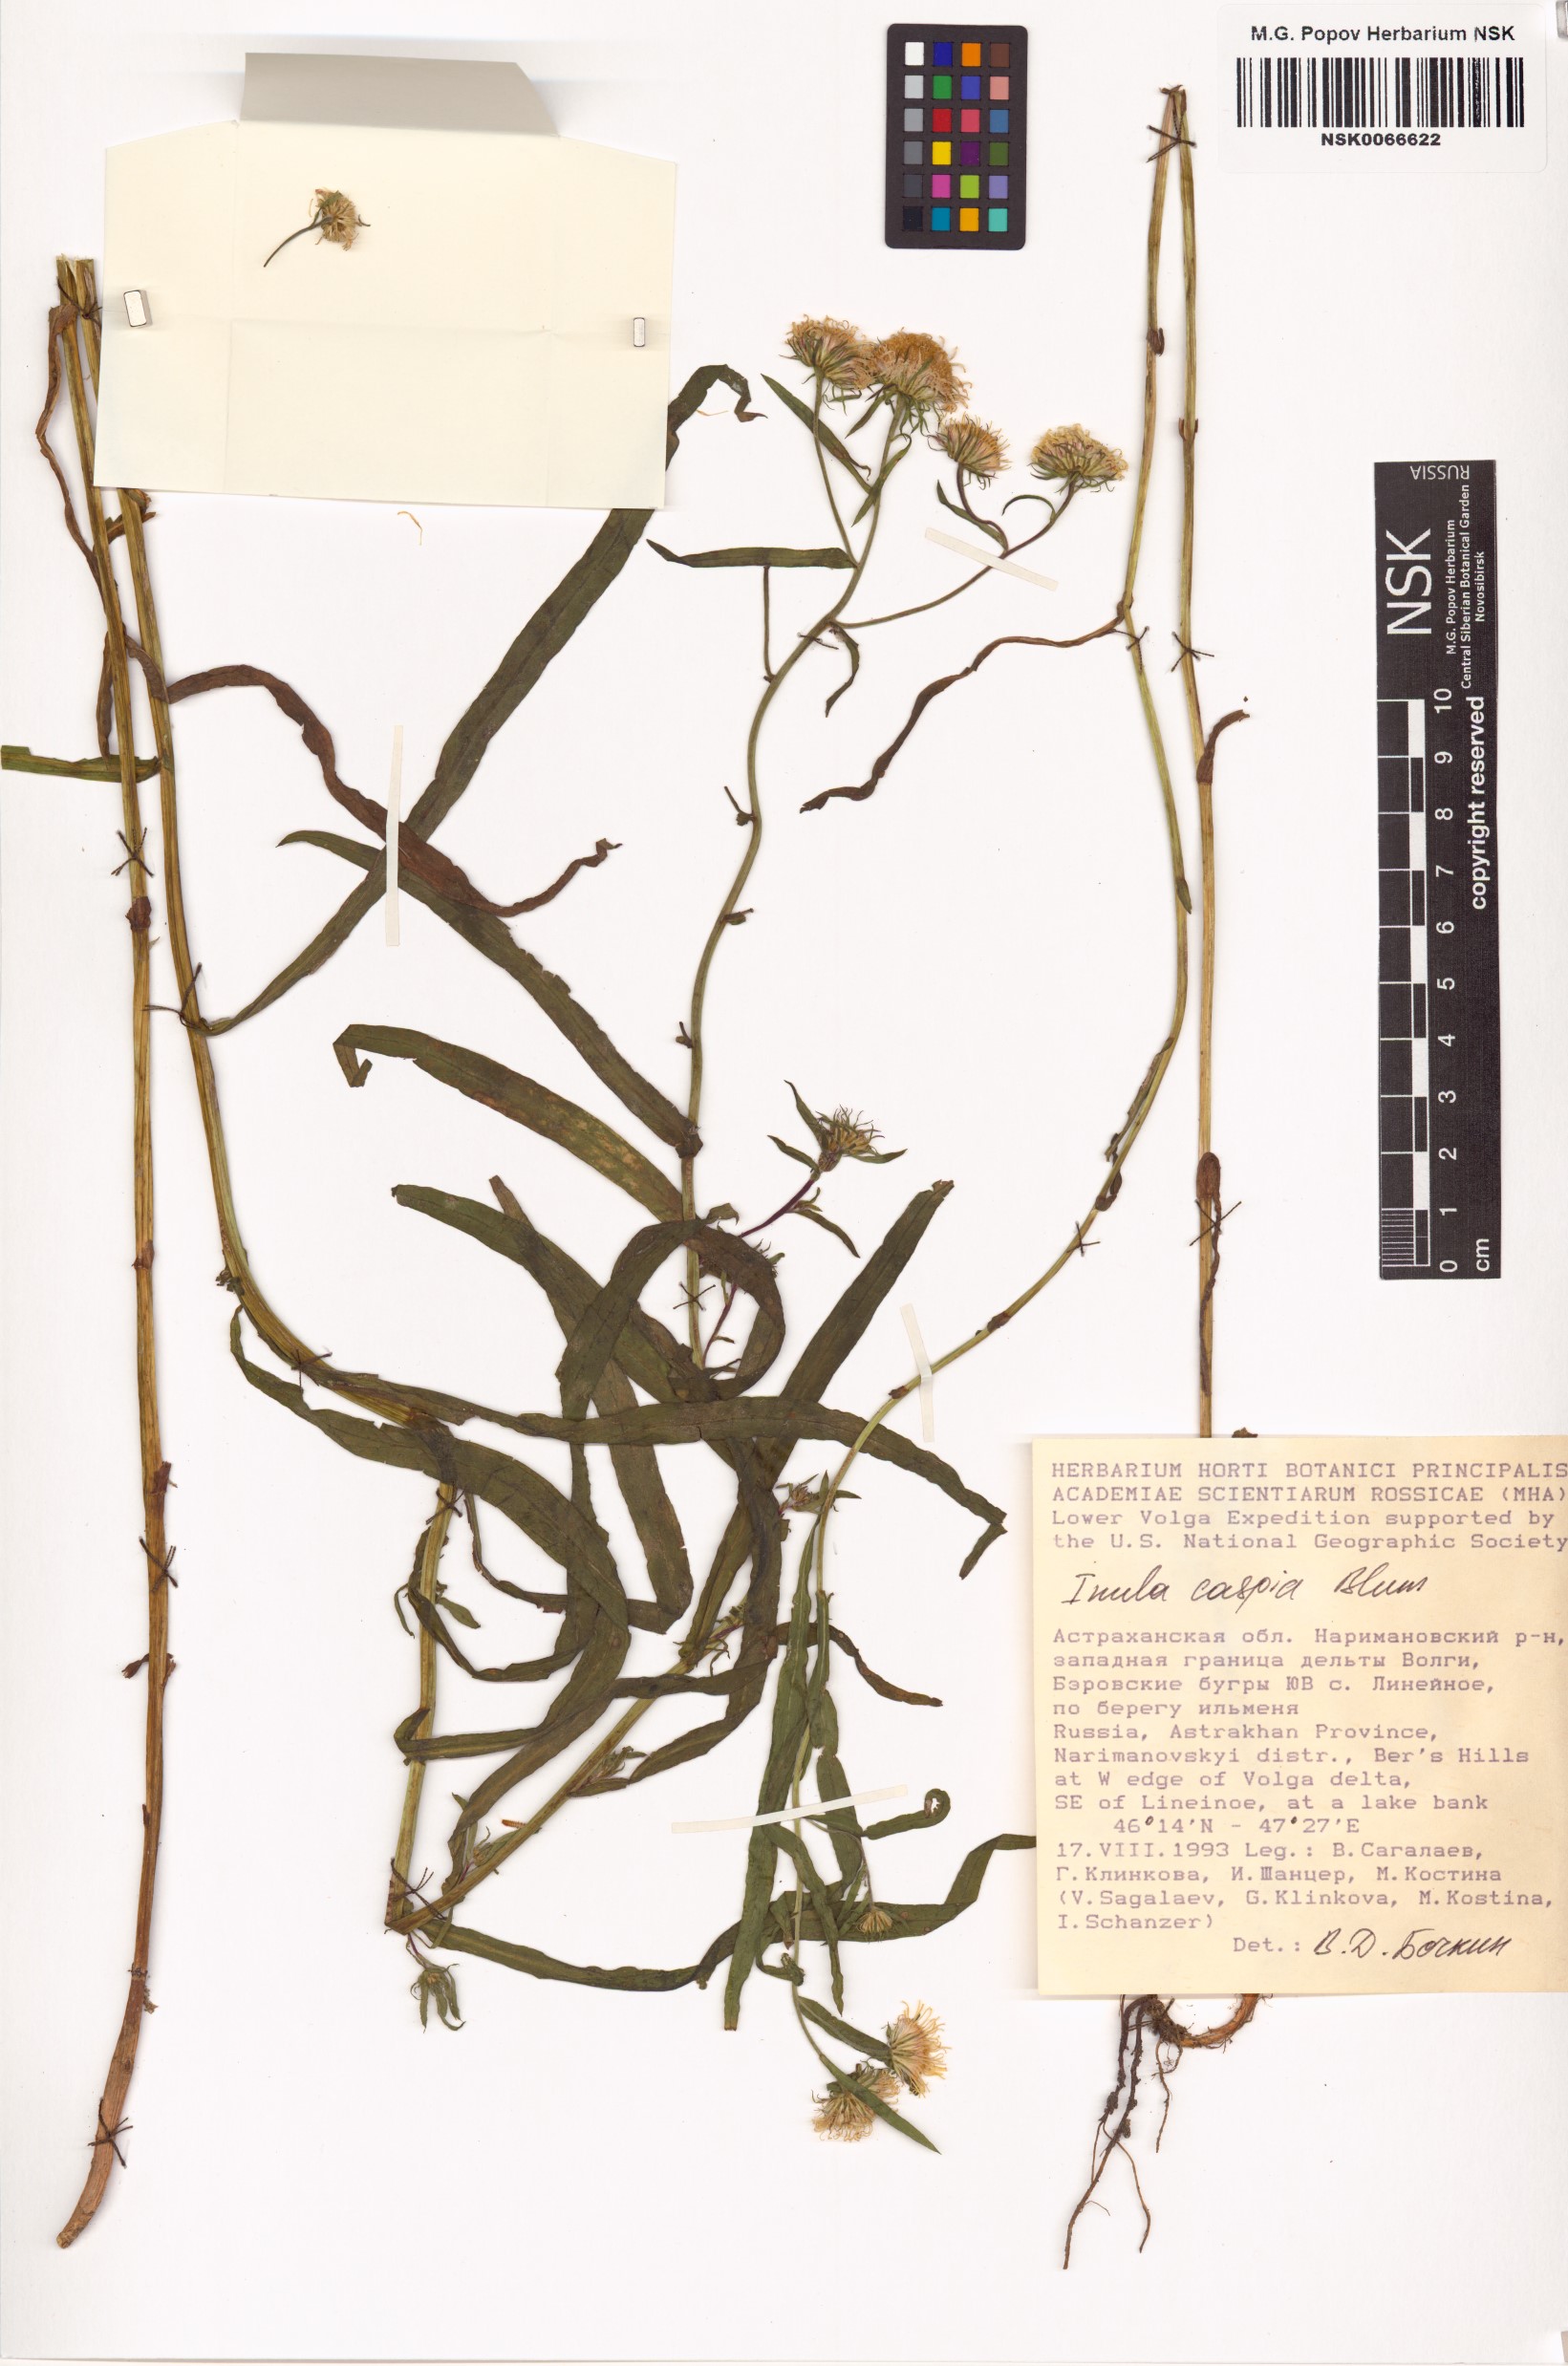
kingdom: Plantae
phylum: Tracheophyta
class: Magnoliopsida
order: Asterales
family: Asteraceae
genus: Pentanema
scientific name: Pentanema caspicum
